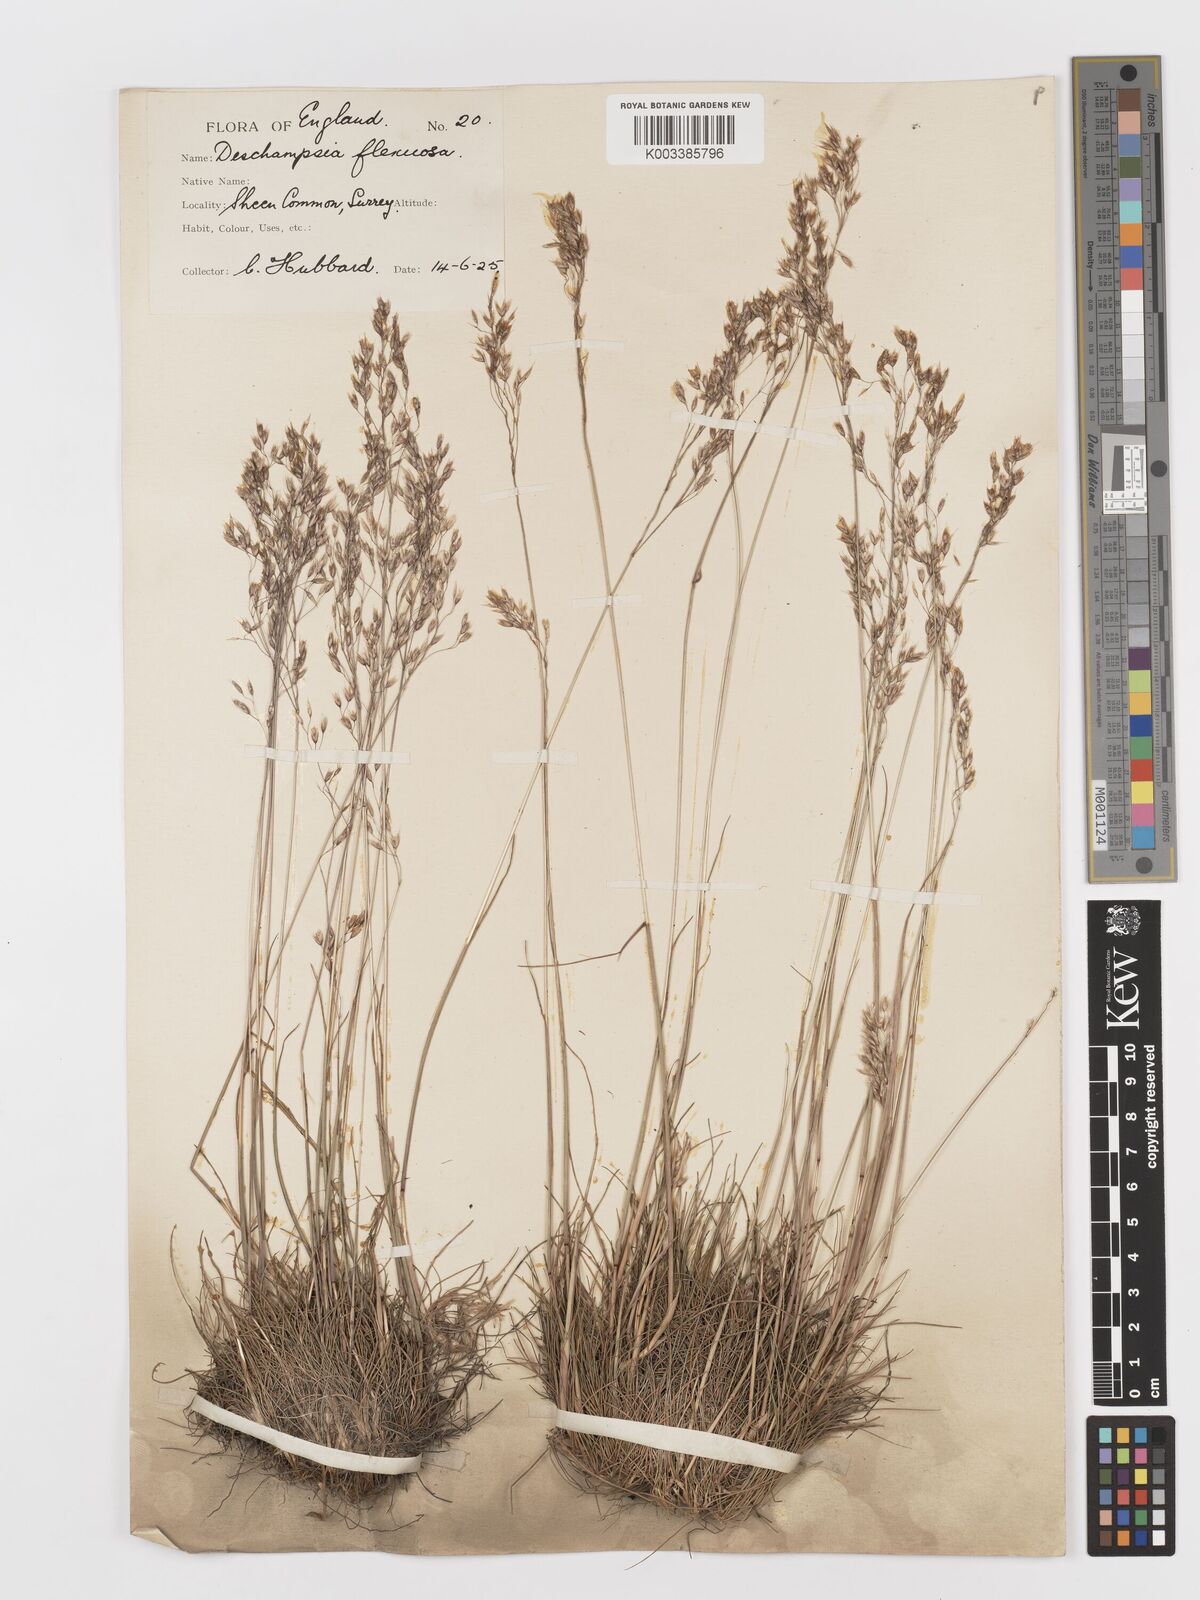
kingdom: Plantae
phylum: Tracheophyta
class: Liliopsida
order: Poales
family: Poaceae
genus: Avenella
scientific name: Avenella flexuosa
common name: Wavy hairgrass
